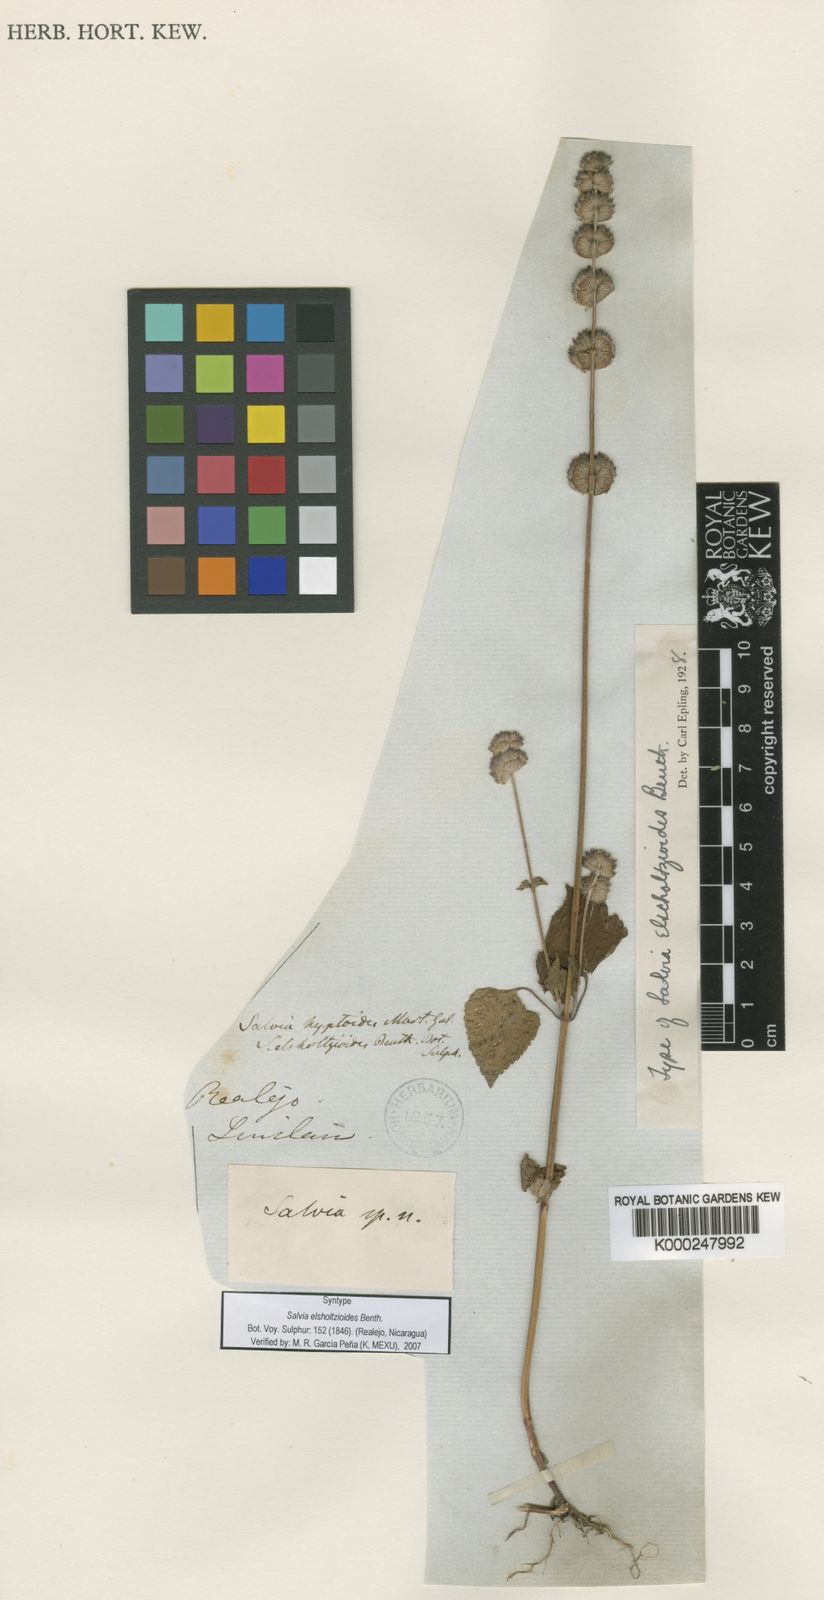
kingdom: Plantae
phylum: Tracheophyta
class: Magnoliopsida
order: Lamiales
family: Lamiaceae
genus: Salvia
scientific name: Salvia lasiocephala
